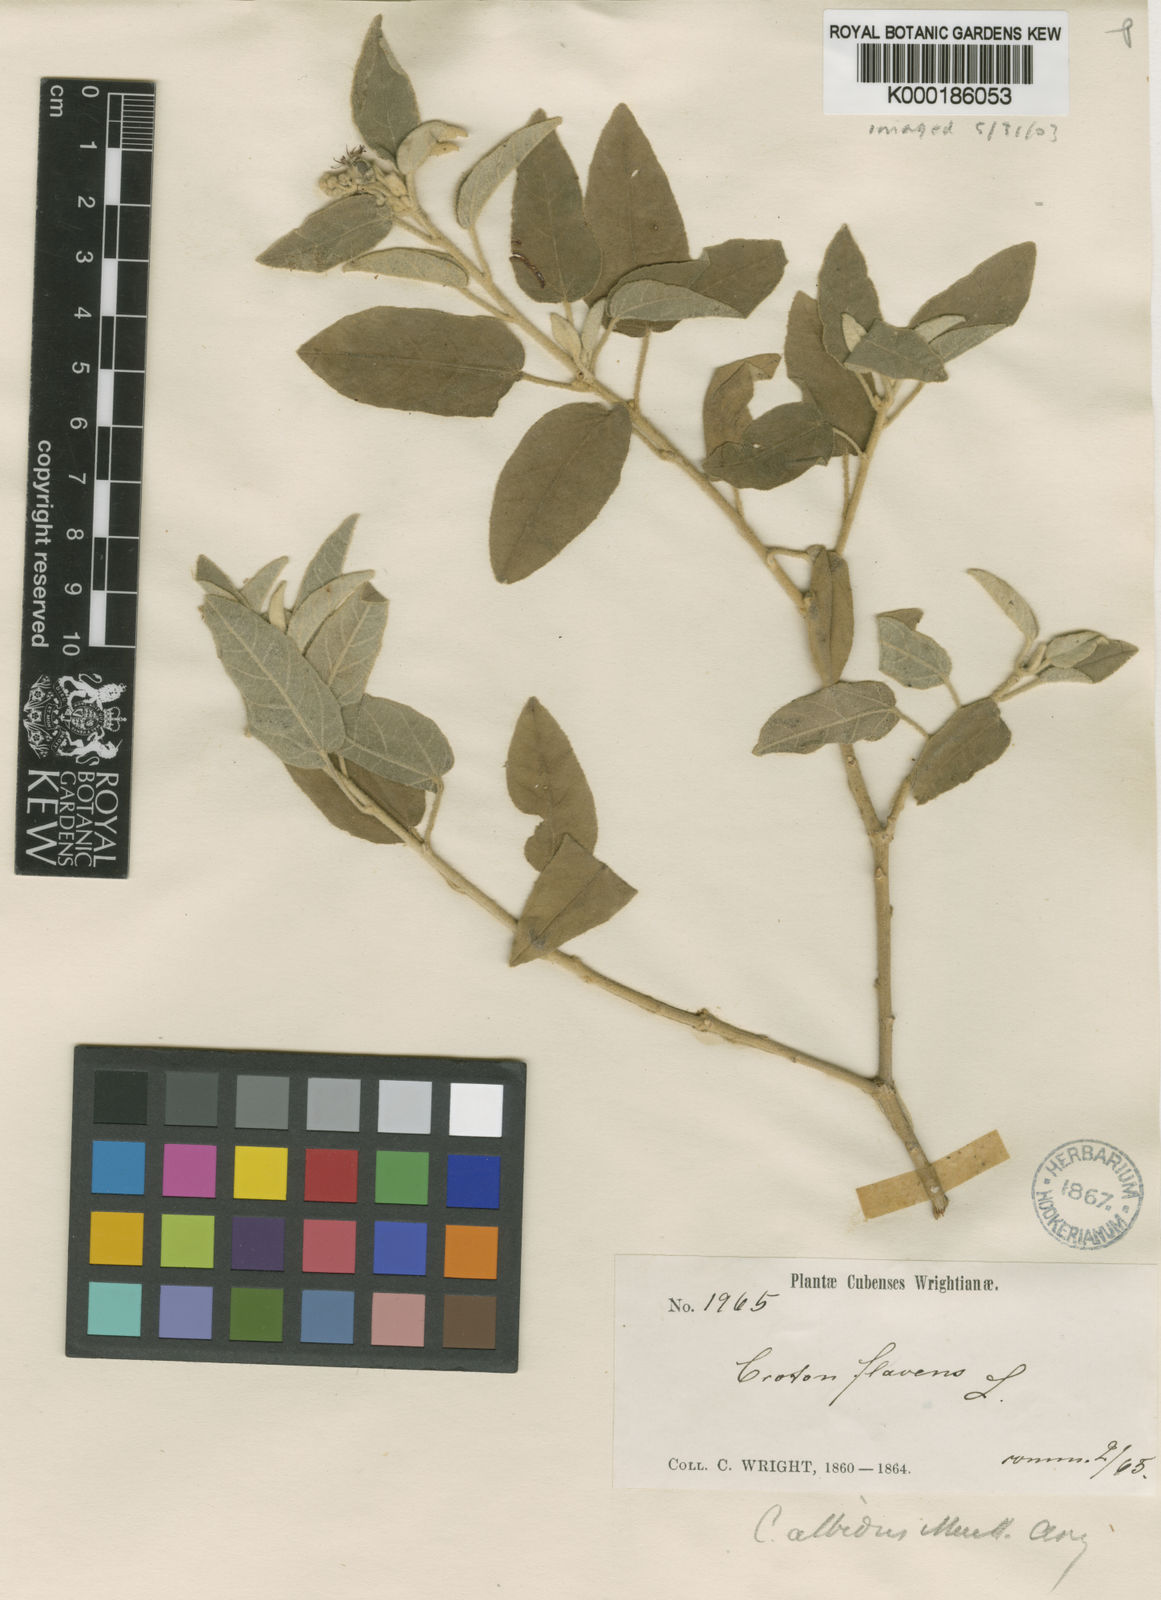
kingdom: Plantae
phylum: Tracheophyta
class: Magnoliopsida
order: Malpighiales
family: Euphorbiaceae
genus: Croton
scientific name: Croton flavens
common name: Yellow balsam
